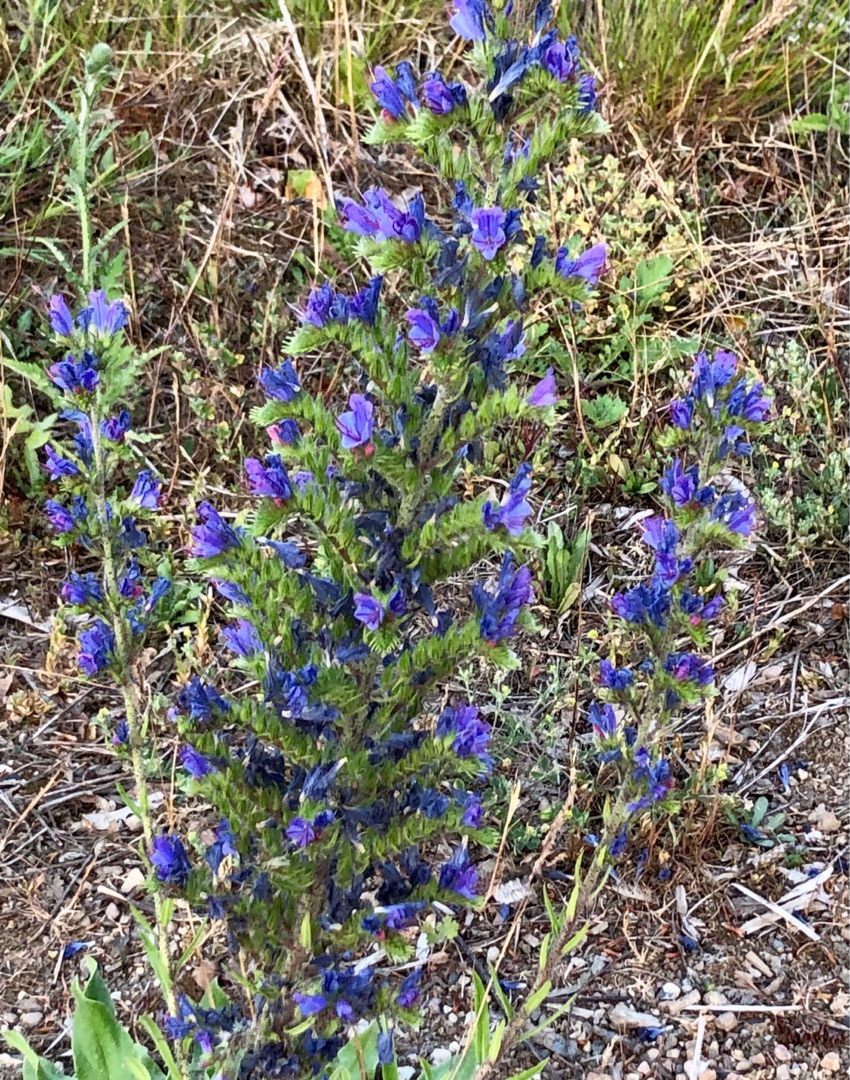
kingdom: Plantae
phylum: Tracheophyta
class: Magnoliopsida
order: Boraginales
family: Boraginaceae
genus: Echium
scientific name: Echium vulgare
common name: Slangehoved
